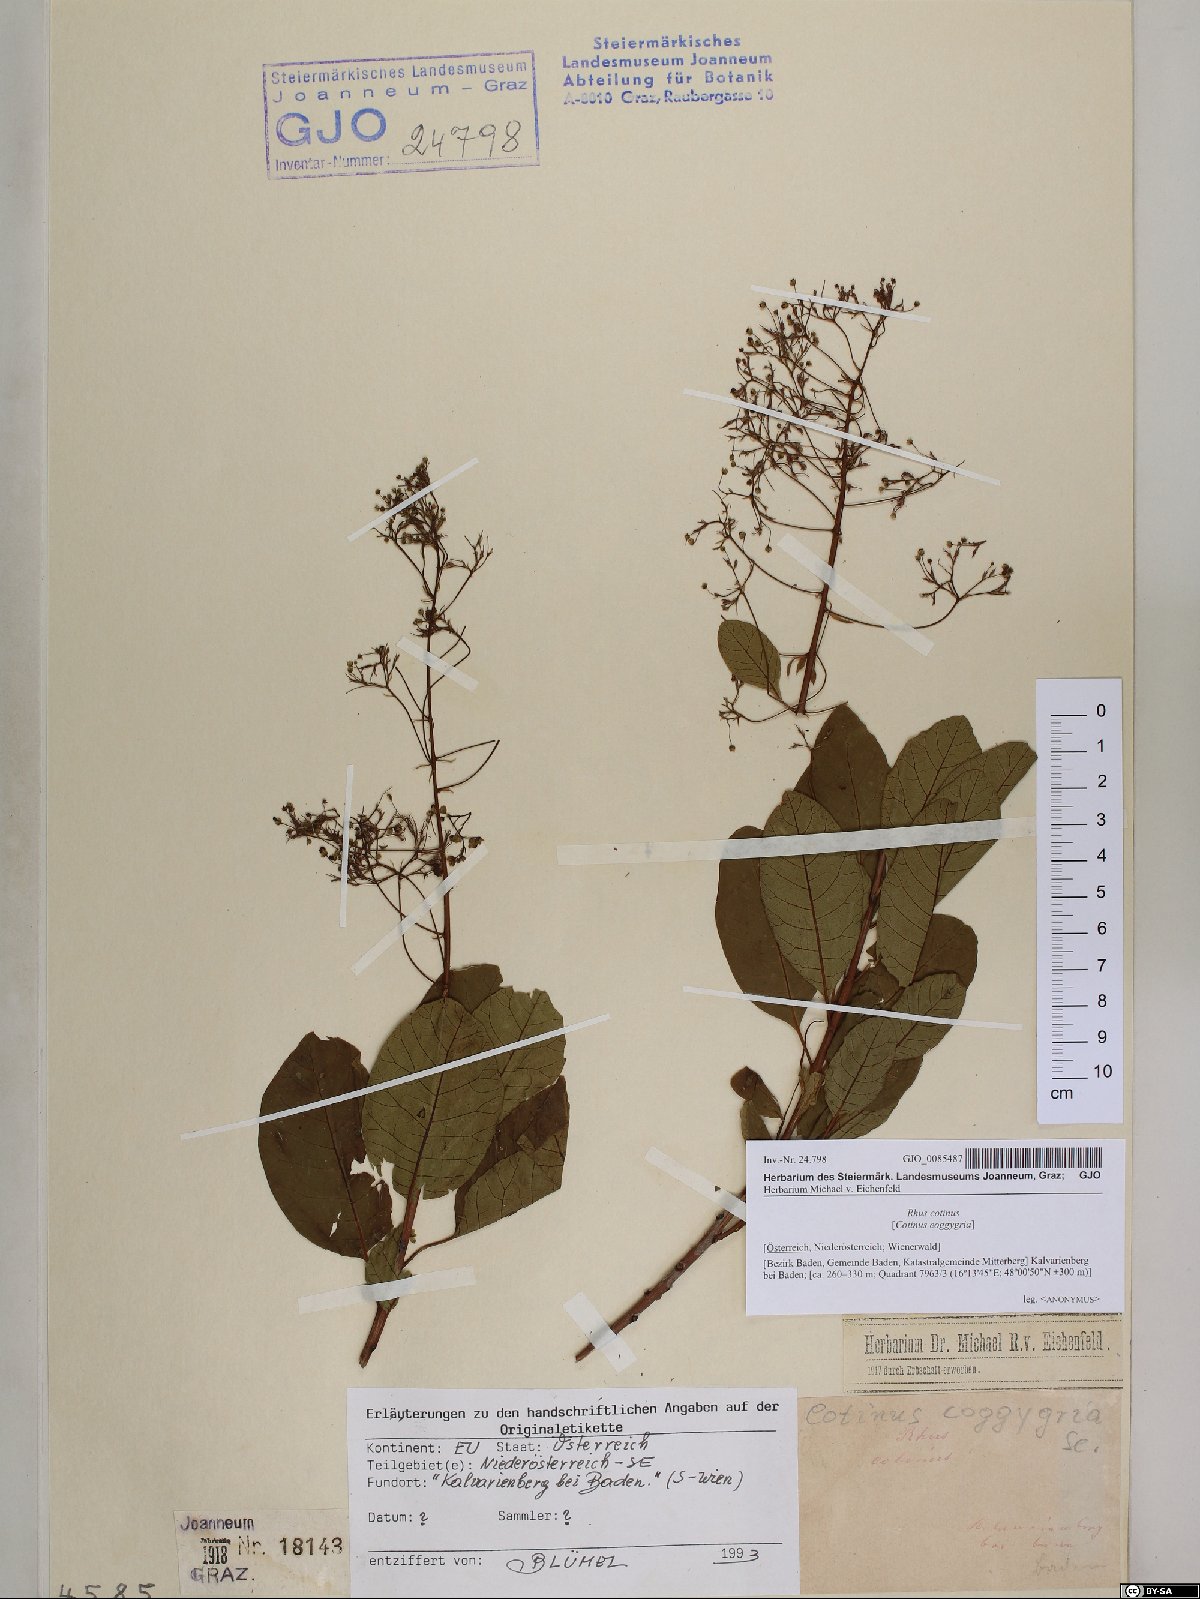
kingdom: Plantae
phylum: Tracheophyta
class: Magnoliopsida
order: Sapindales
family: Anacardiaceae
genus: Cotinus
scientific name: Cotinus coggygria
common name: Smoke-tree
